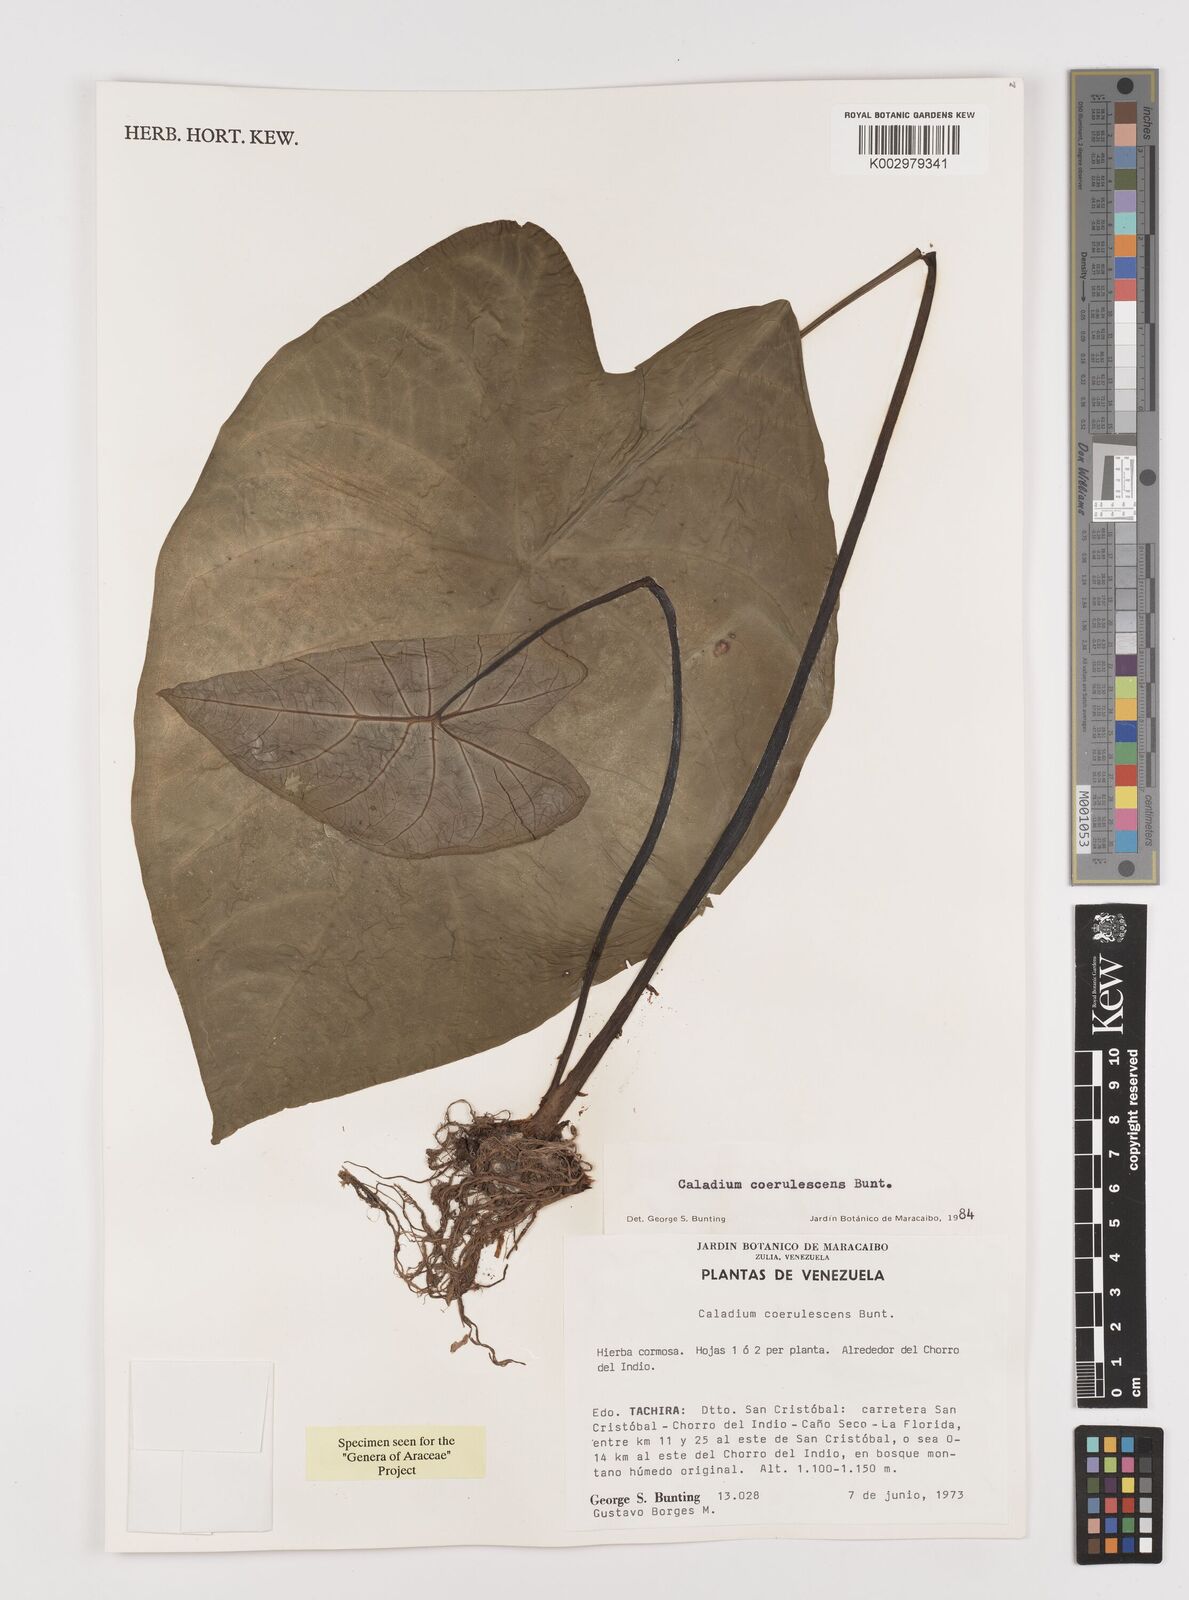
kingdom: Plantae
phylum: Tracheophyta
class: Liliopsida
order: Alismatales
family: Araceae
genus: Caladium
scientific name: Caladium coerulescens
